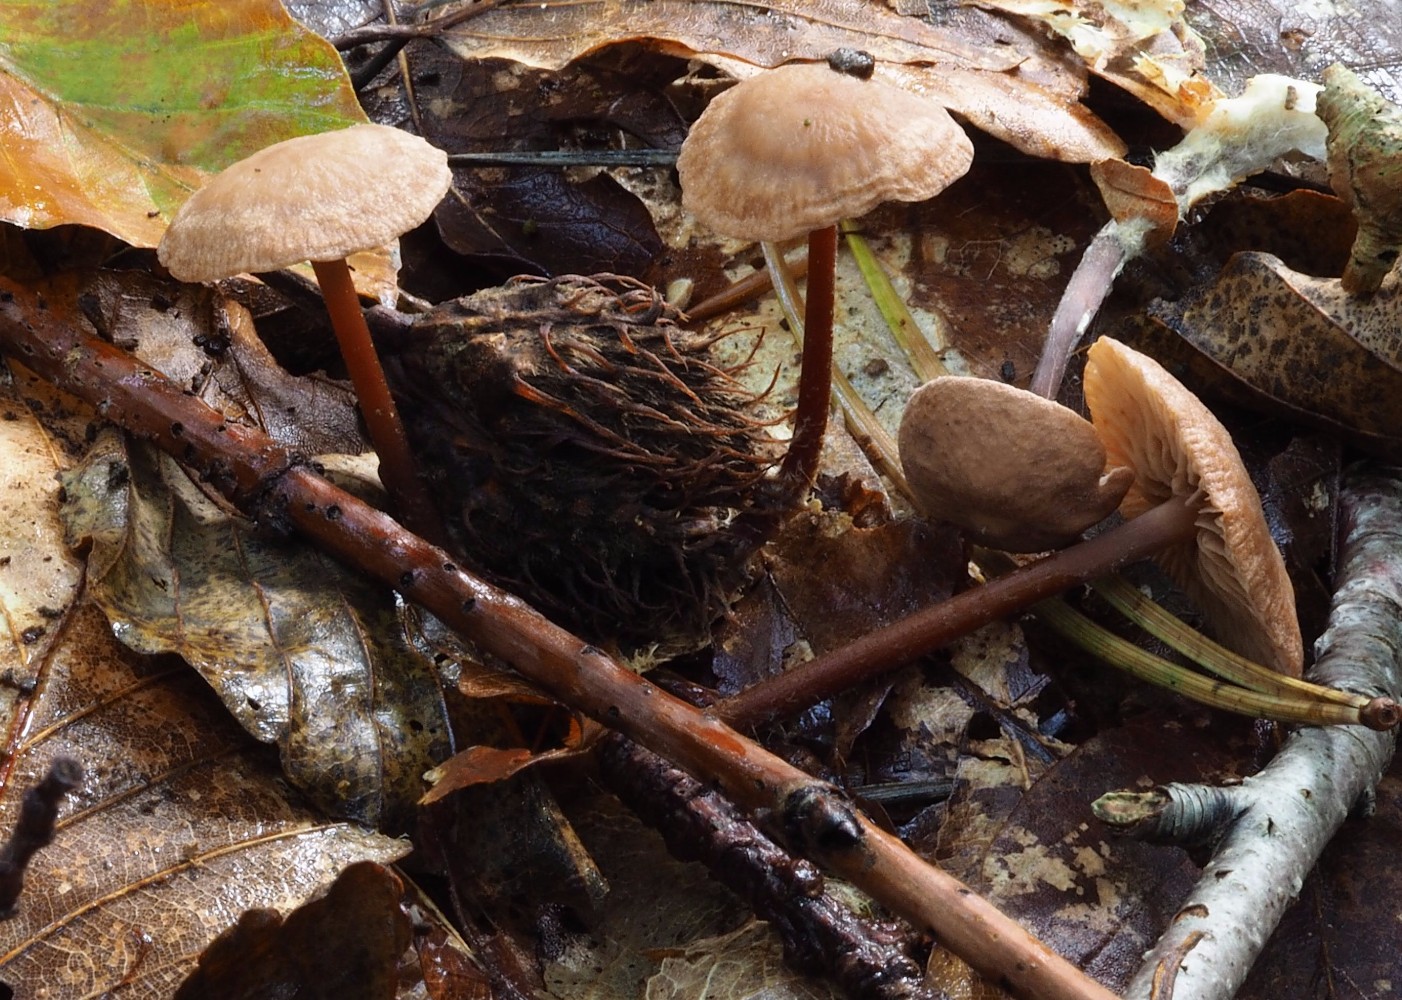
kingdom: Fungi
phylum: Basidiomycota
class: Agaricomycetes
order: Agaricales
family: Omphalotaceae
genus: Gymnopus
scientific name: Gymnopus erythropus
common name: rødstokket fladhat
